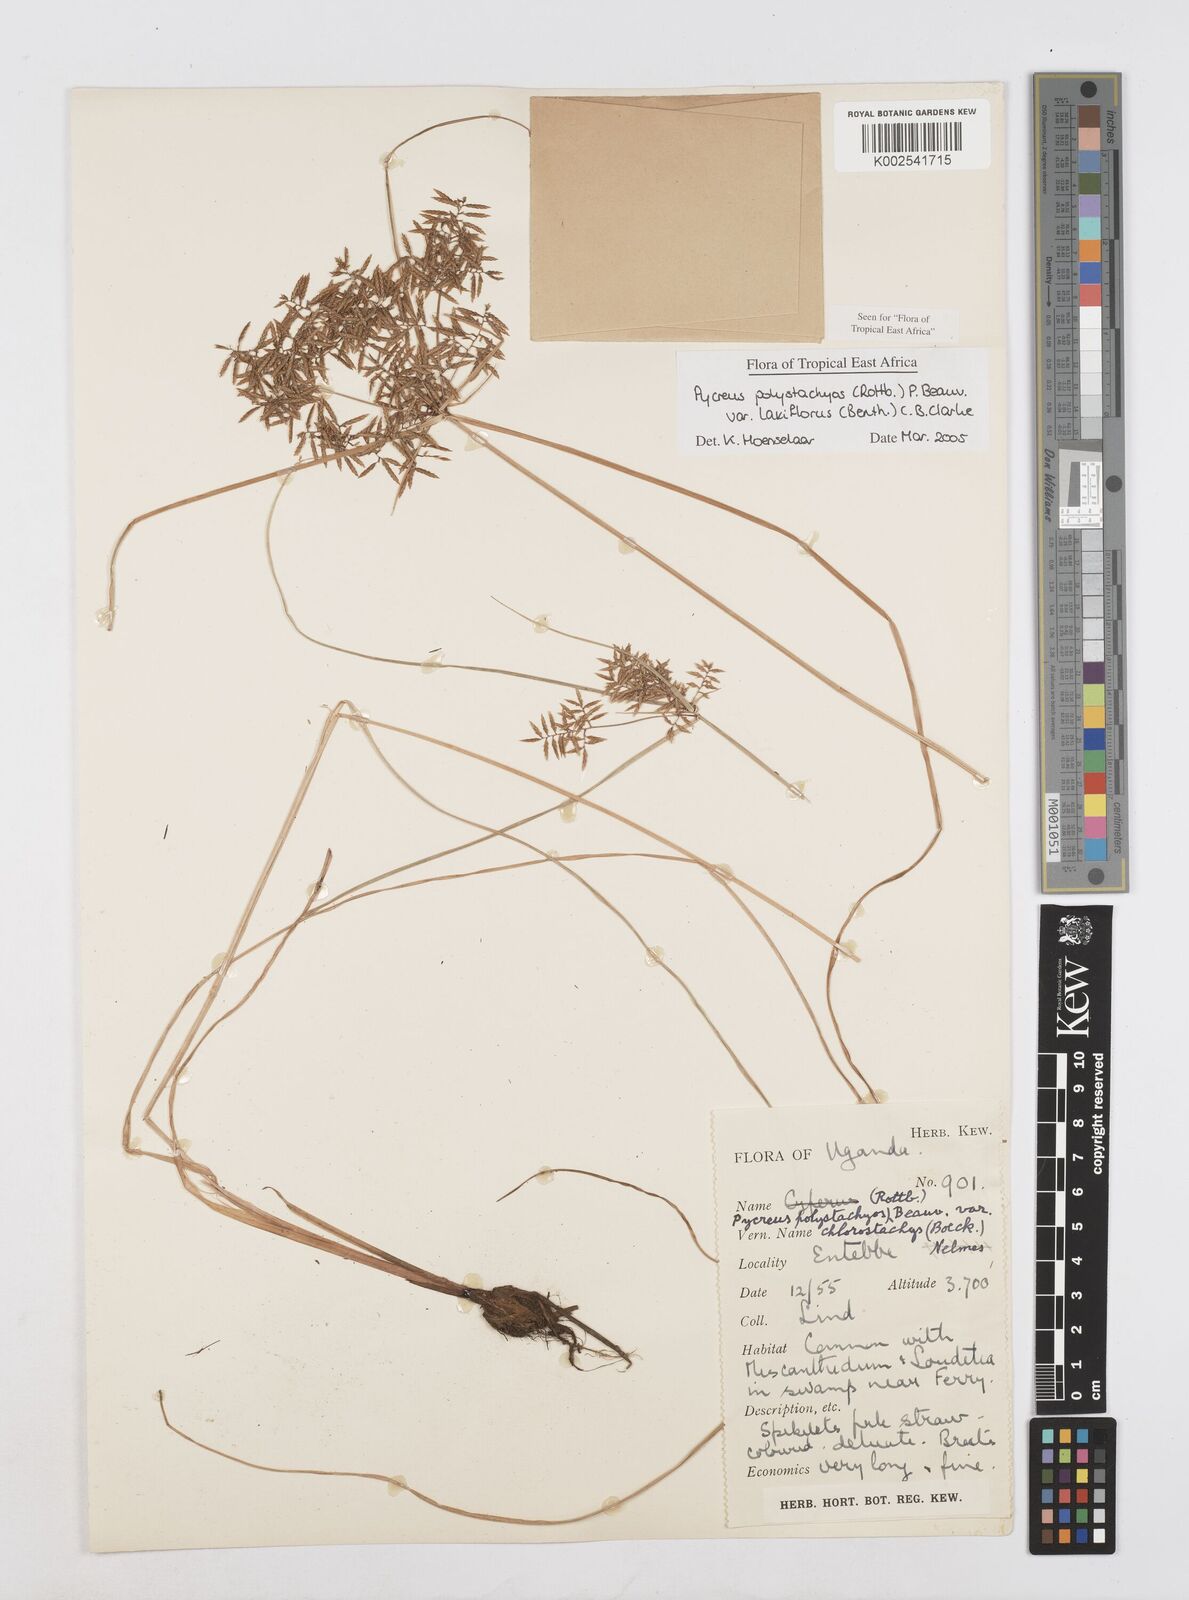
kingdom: Plantae
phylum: Tracheophyta
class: Liliopsida
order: Poales
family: Cyperaceae
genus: Cyperus
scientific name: Cyperus polystachyos
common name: Bunchy flat sedge
